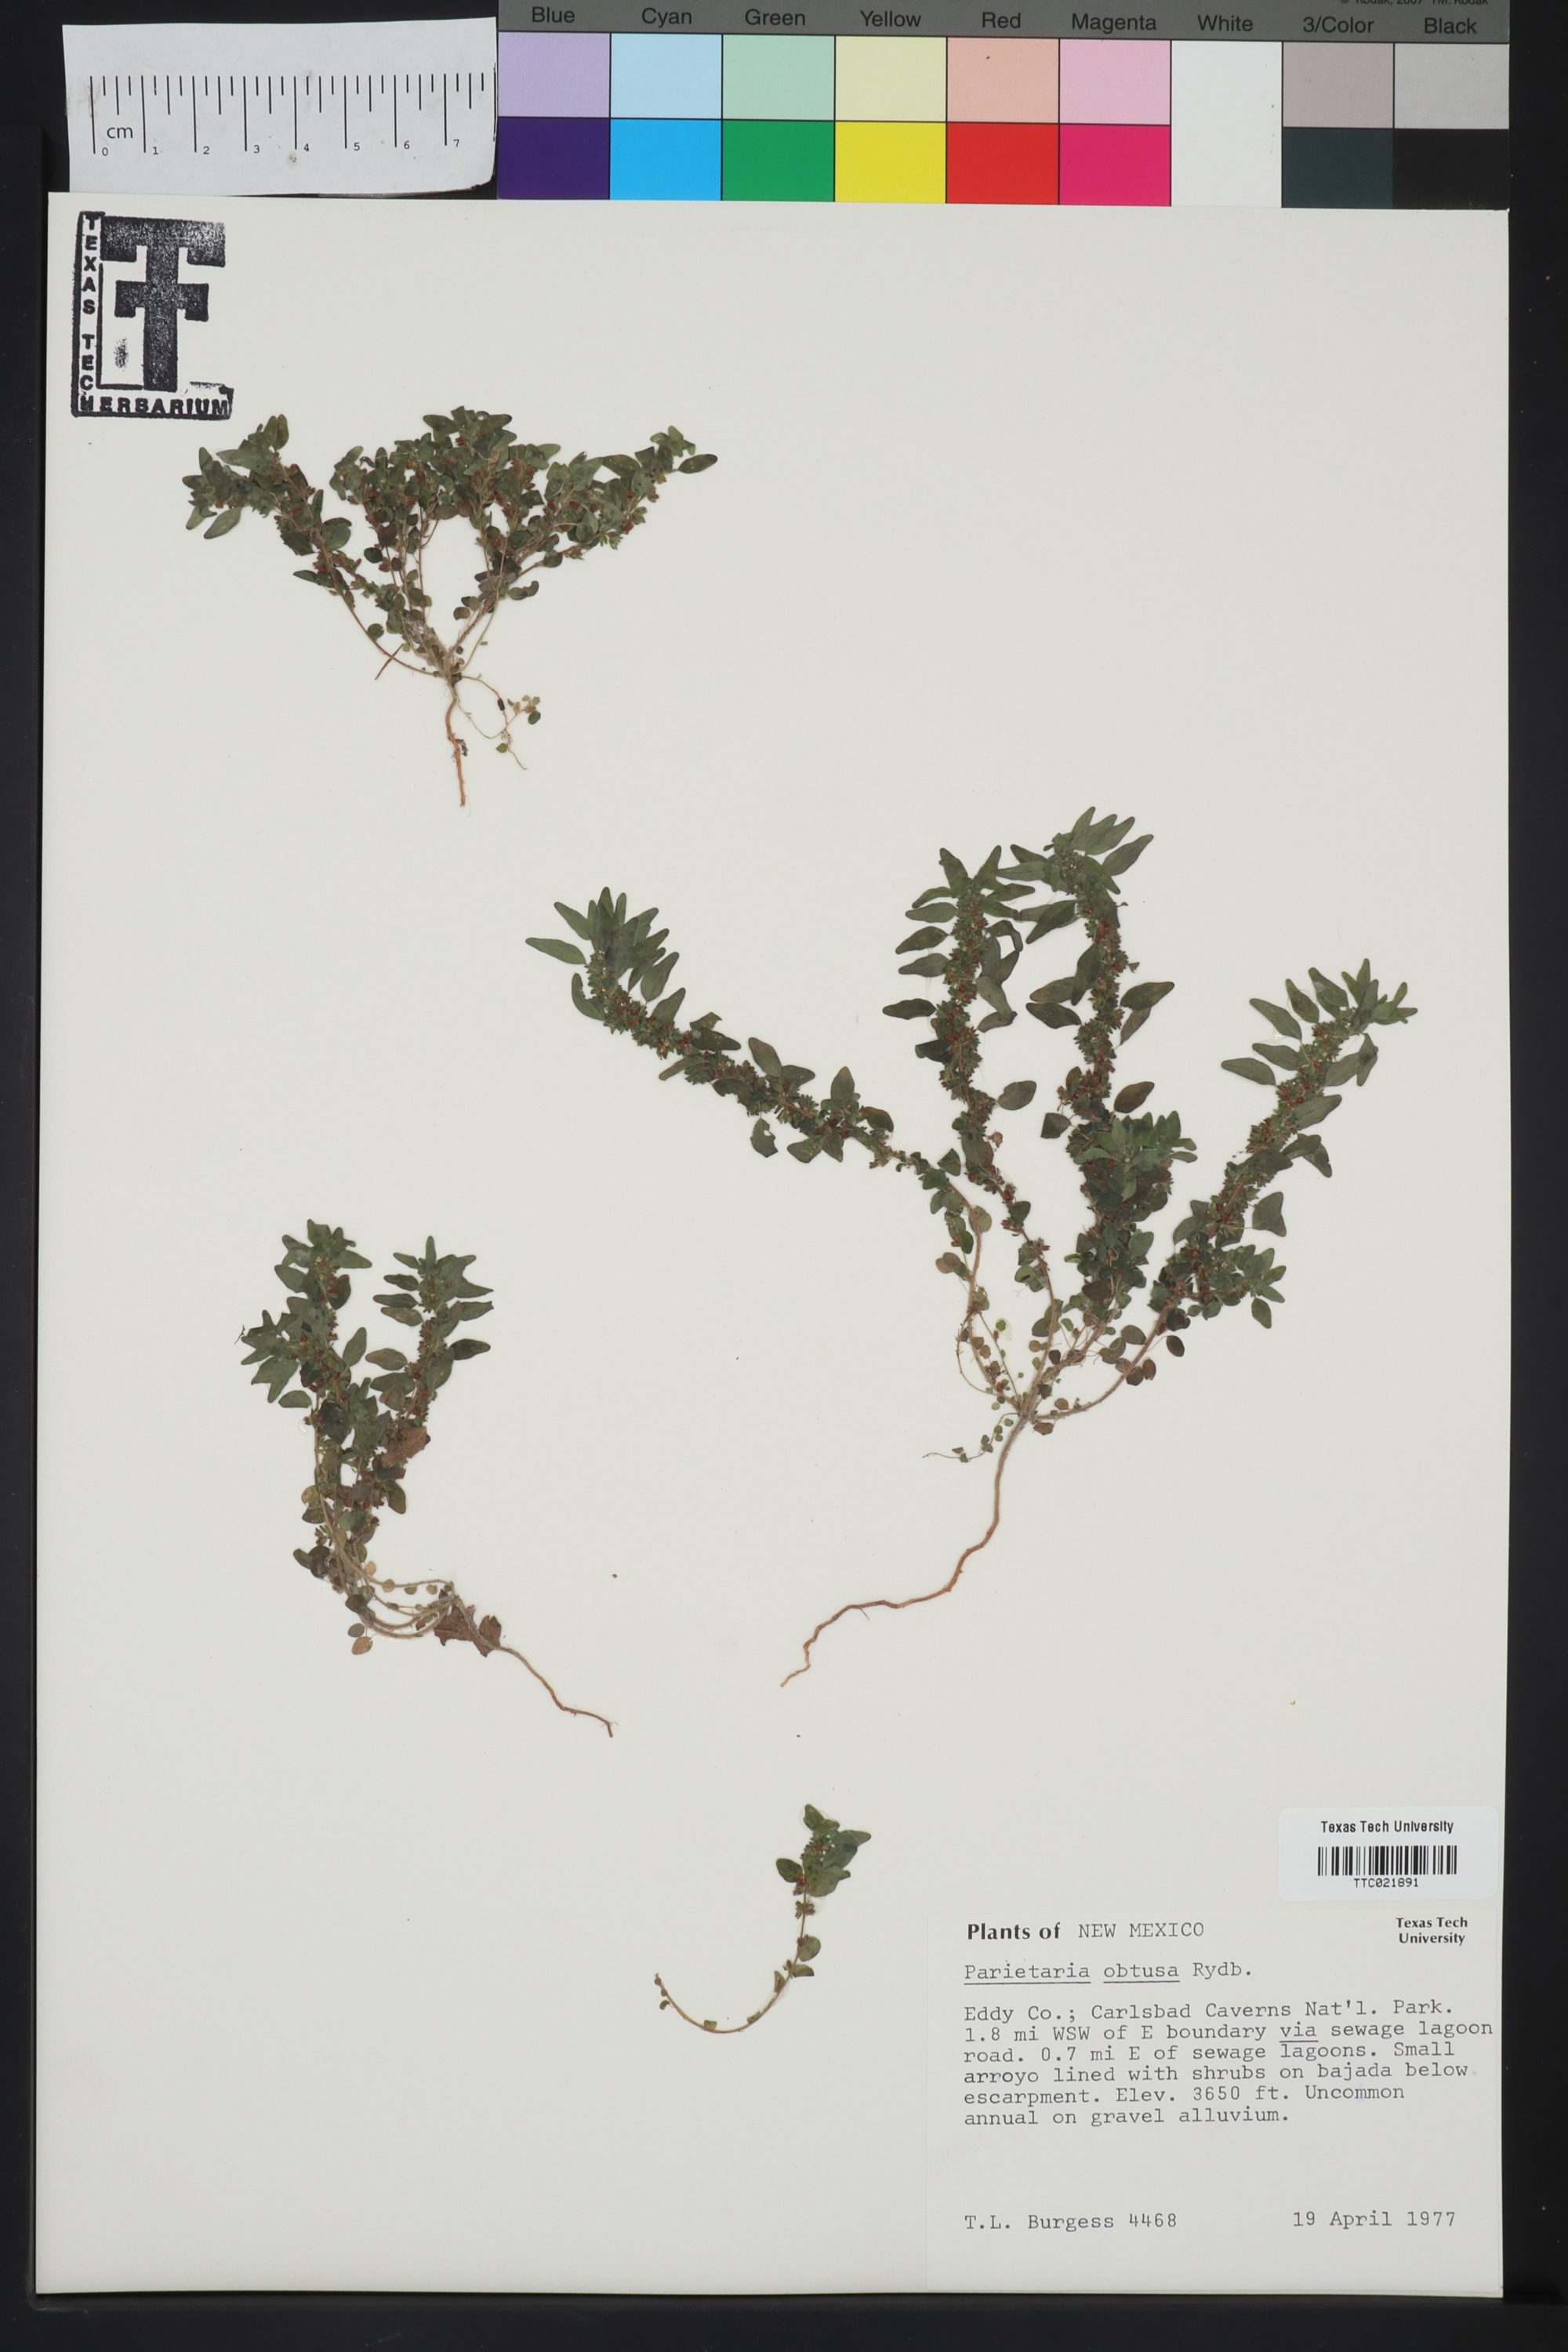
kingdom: Plantae
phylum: Tracheophyta
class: Magnoliopsida
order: Rosales
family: Urticaceae
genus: Parietaria
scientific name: Parietaria pensylvanica
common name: Pennsylvania pellitory
